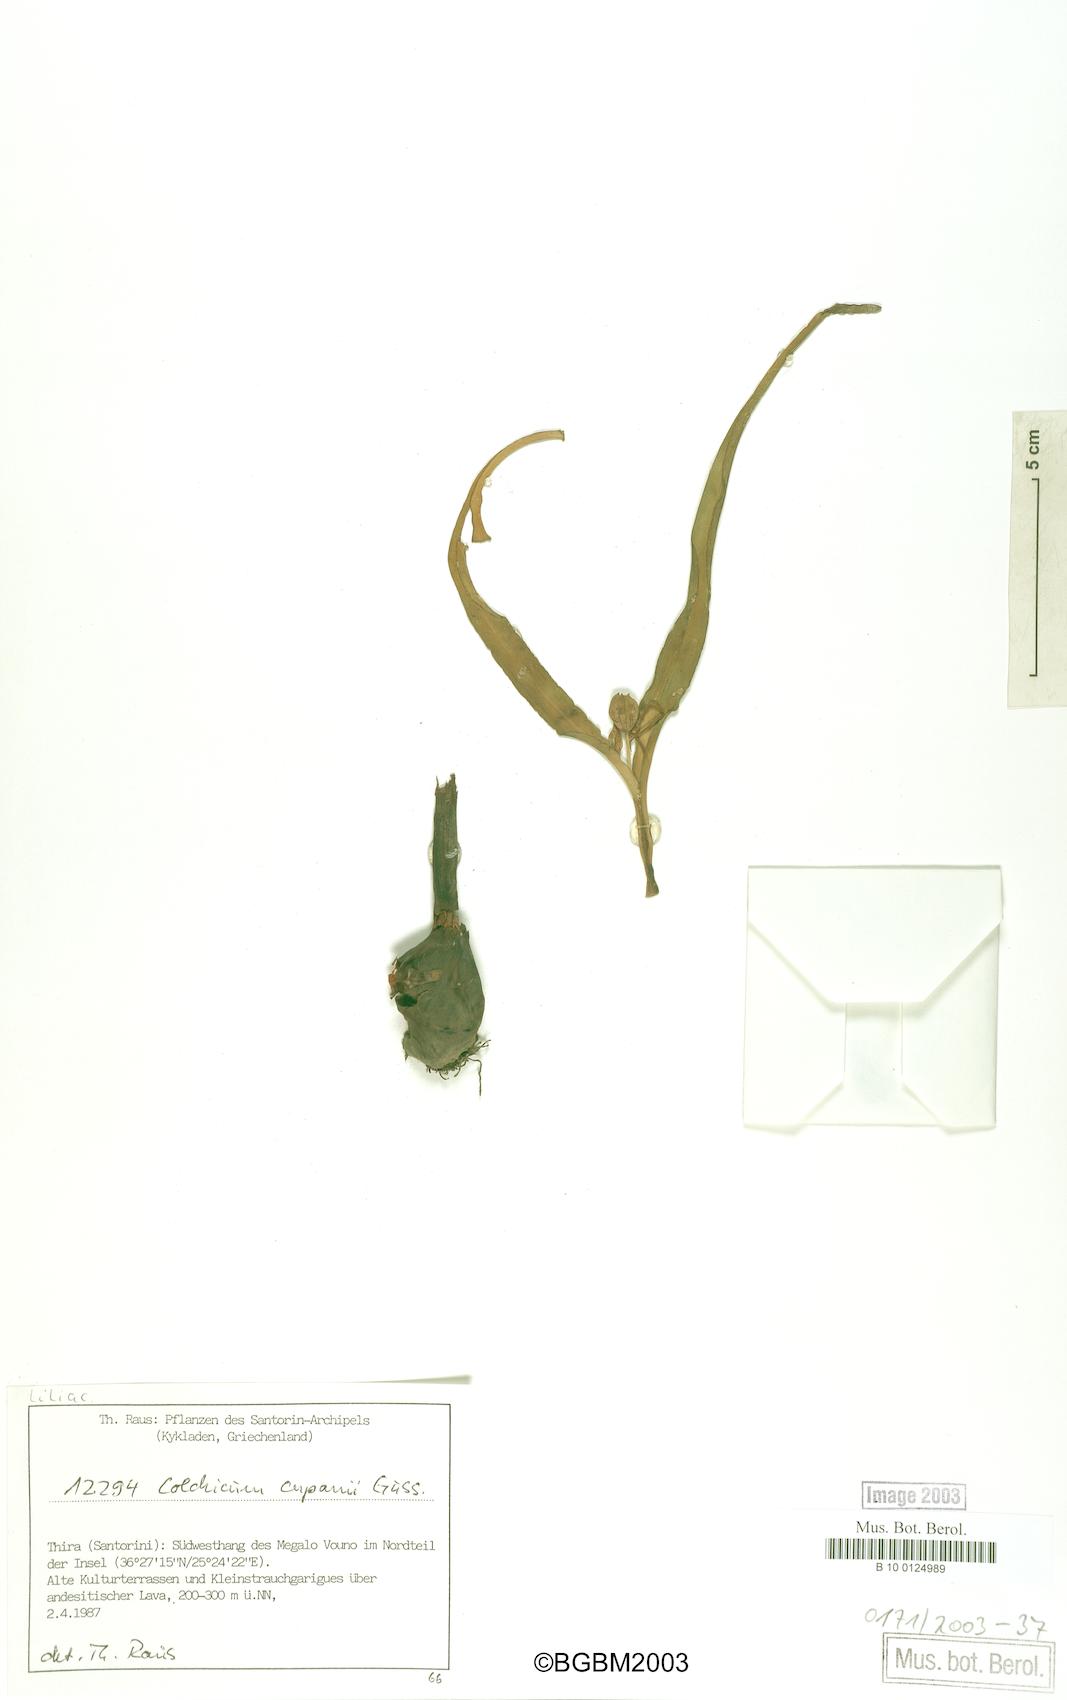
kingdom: Plantae
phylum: Tracheophyta
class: Liliopsida
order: Liliales
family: Colchicaceae
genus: Colchicum
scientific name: Colchicum cupanii
